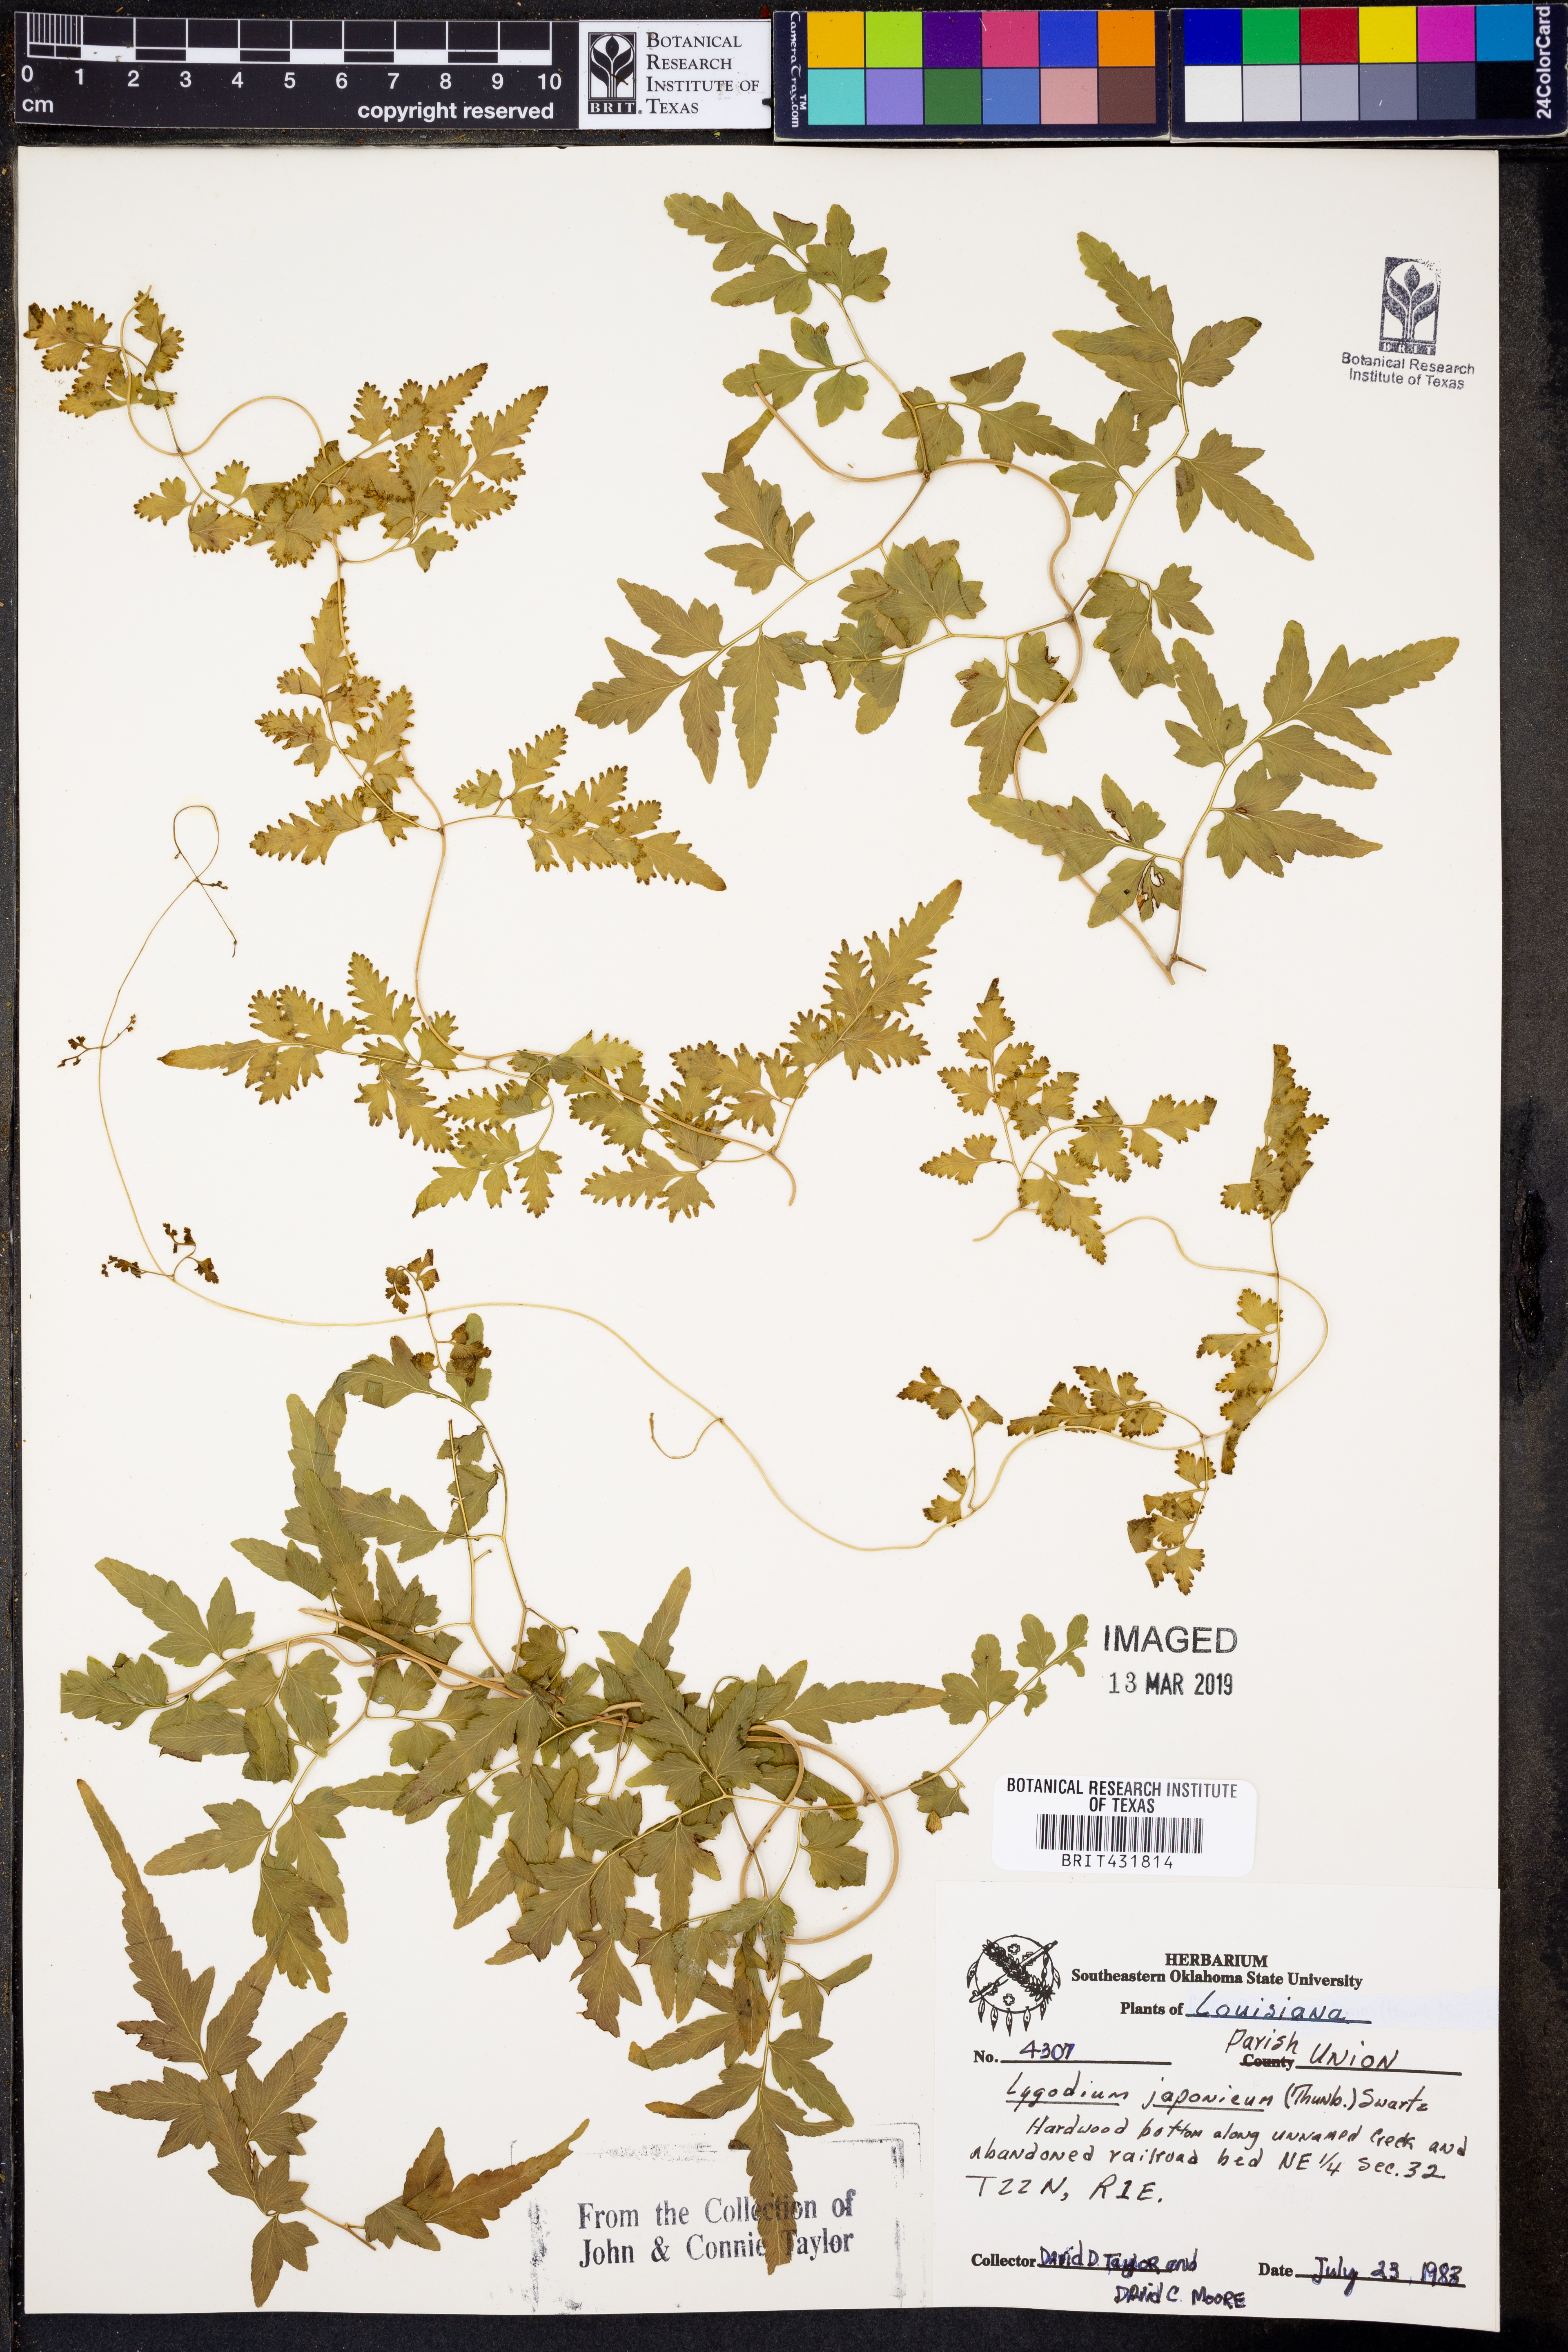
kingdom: Plantae
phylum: Tracheophyta
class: Polypodiopsida
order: Schizaeales
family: Lygodiaceae
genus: Lygodium
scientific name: Lygodium japonicum
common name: Japanese climbing fern
